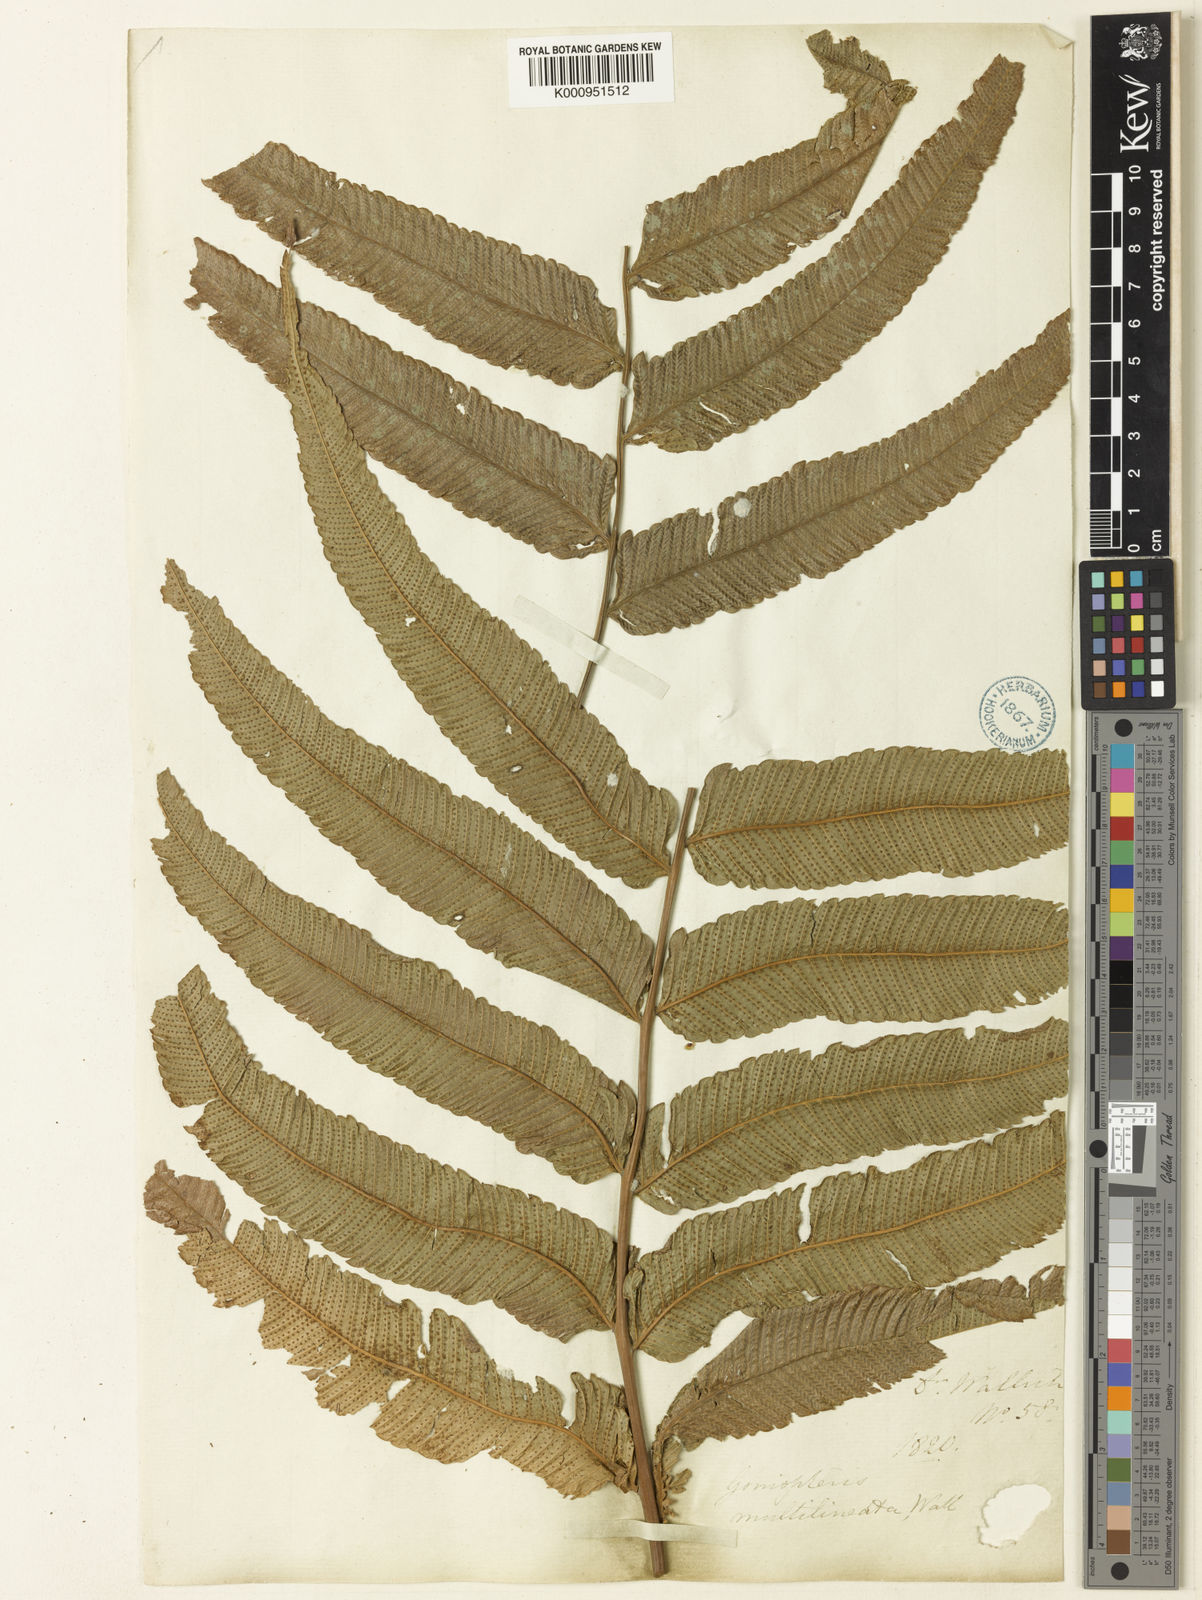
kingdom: Plantae
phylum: Tracheophyta
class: Polypodiopsida
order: Polypodiales
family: Thelypteridaceae
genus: Abacopteris
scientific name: Abacopteris nudata
